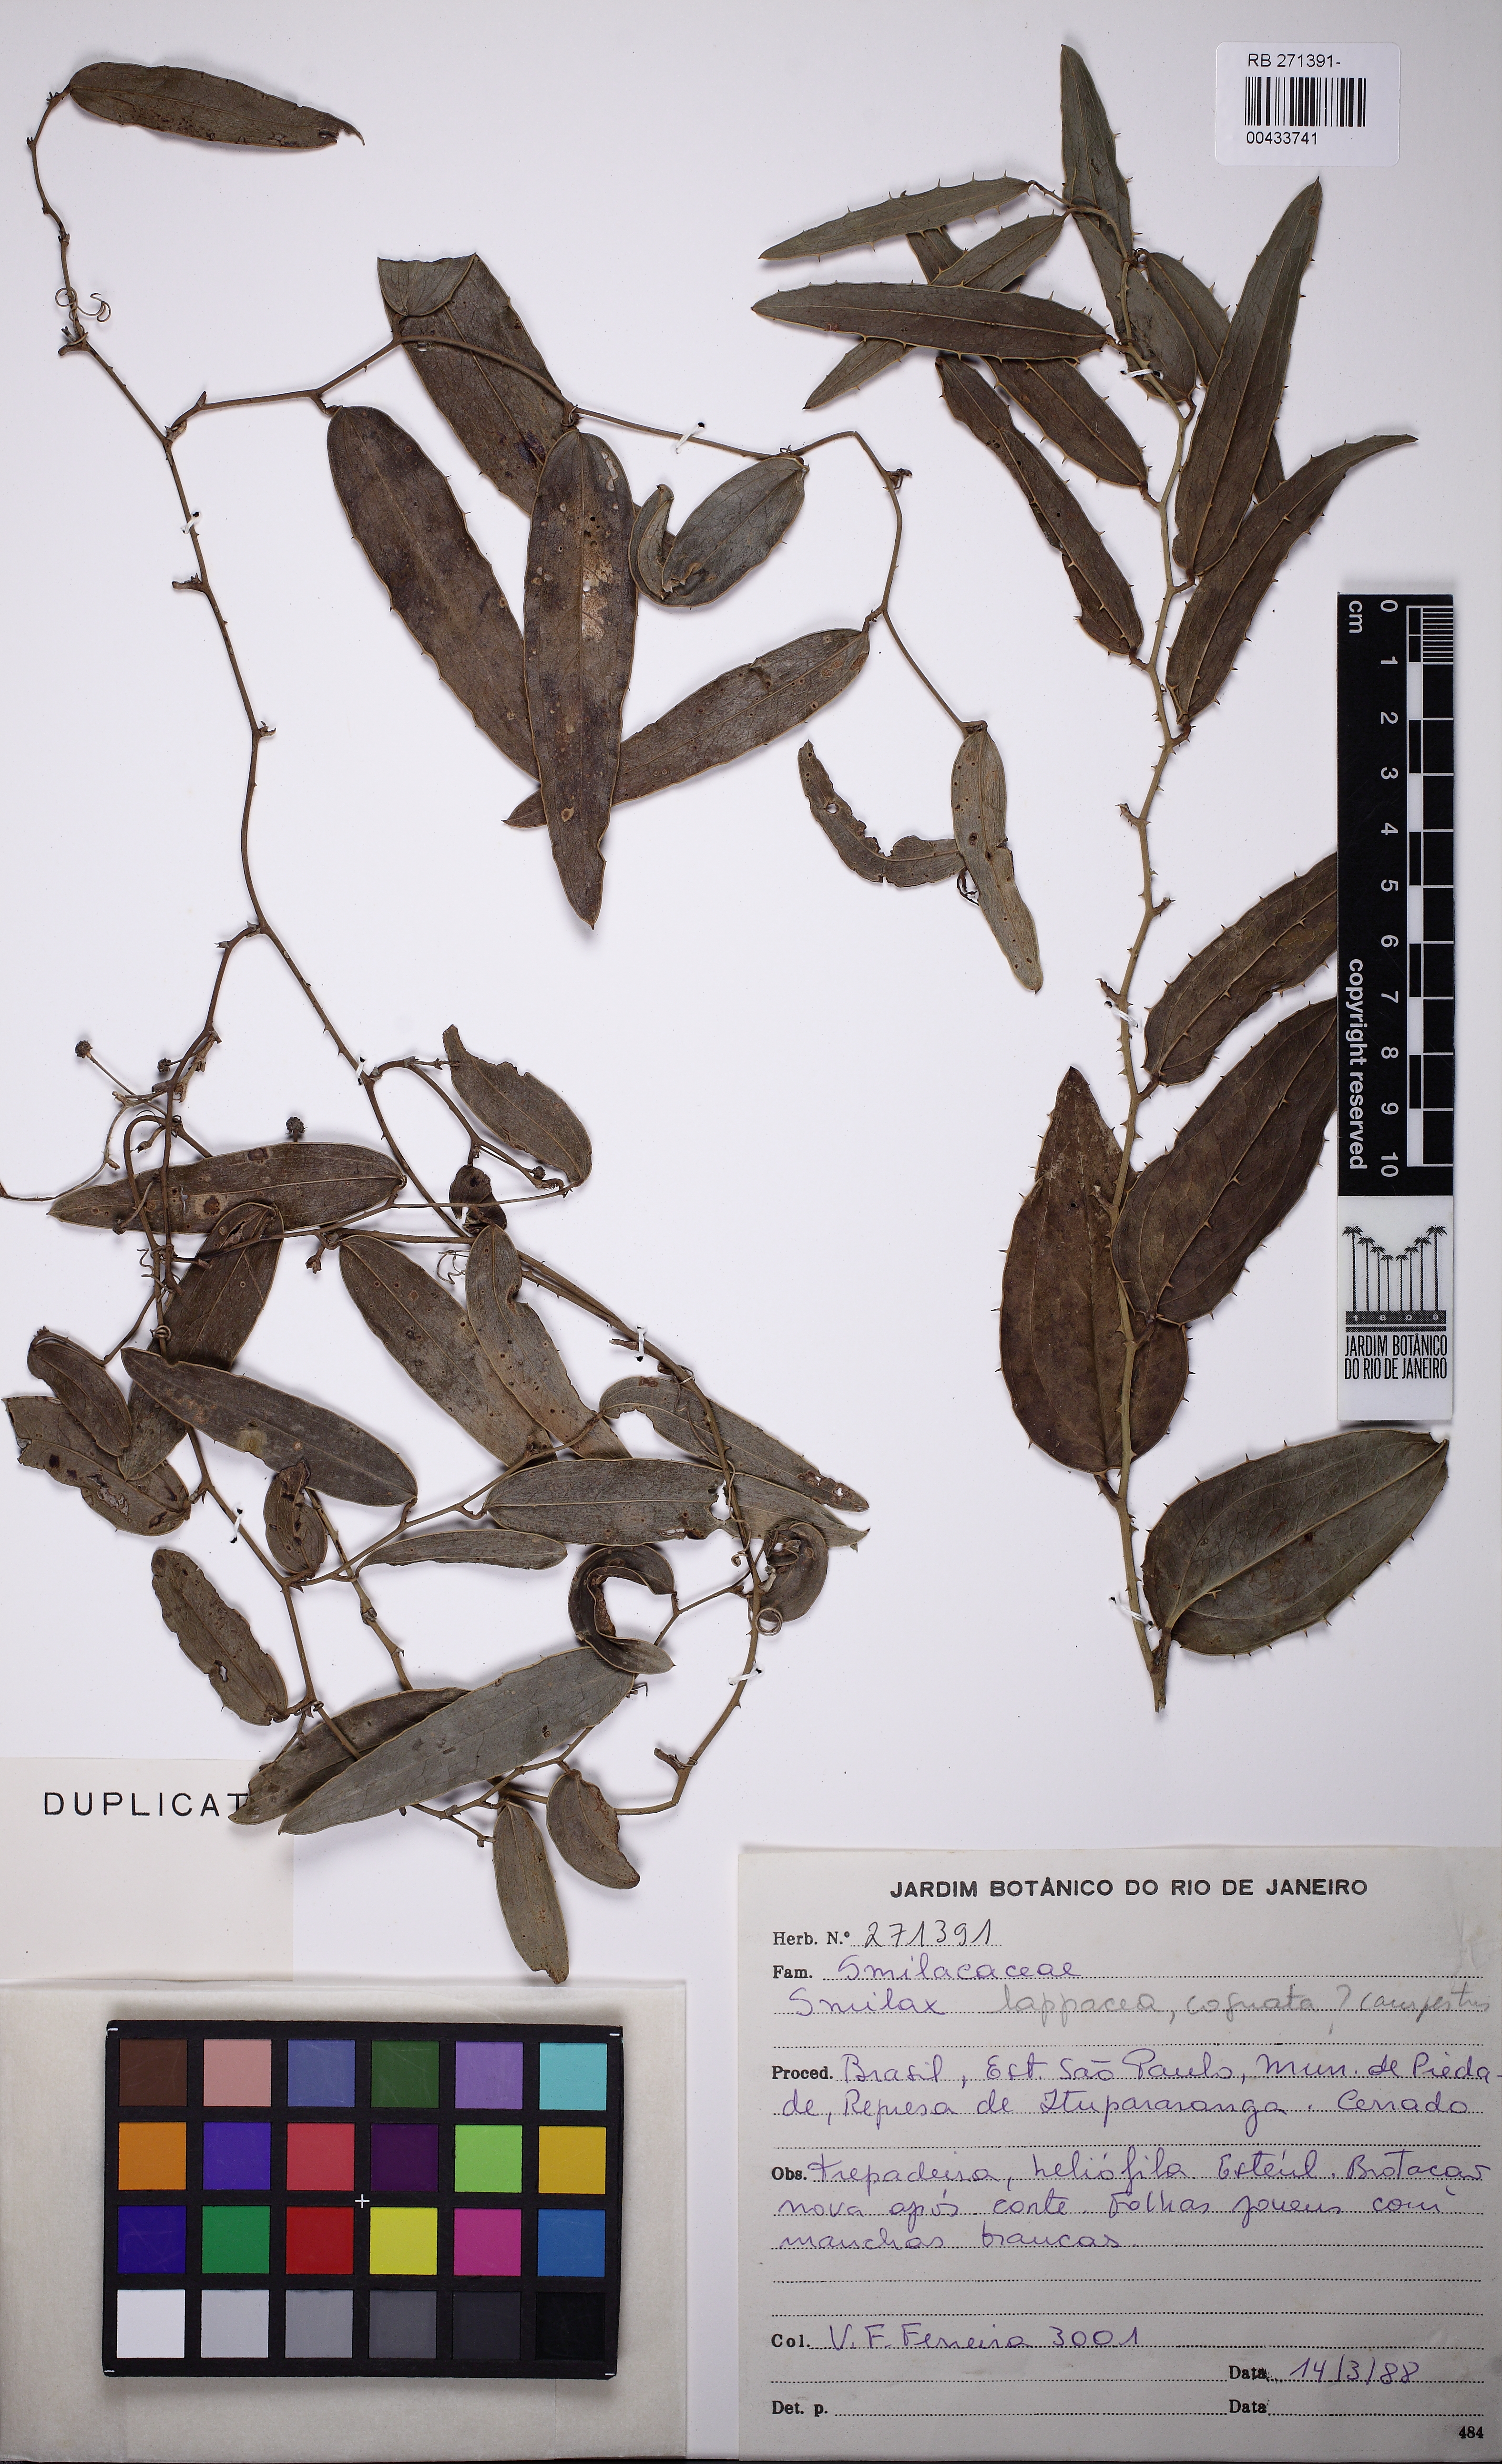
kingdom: Plantae
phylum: Tracheophyta
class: Liliopsida
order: Liliales
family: Smilacaceae
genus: Smilax
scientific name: Smilax
